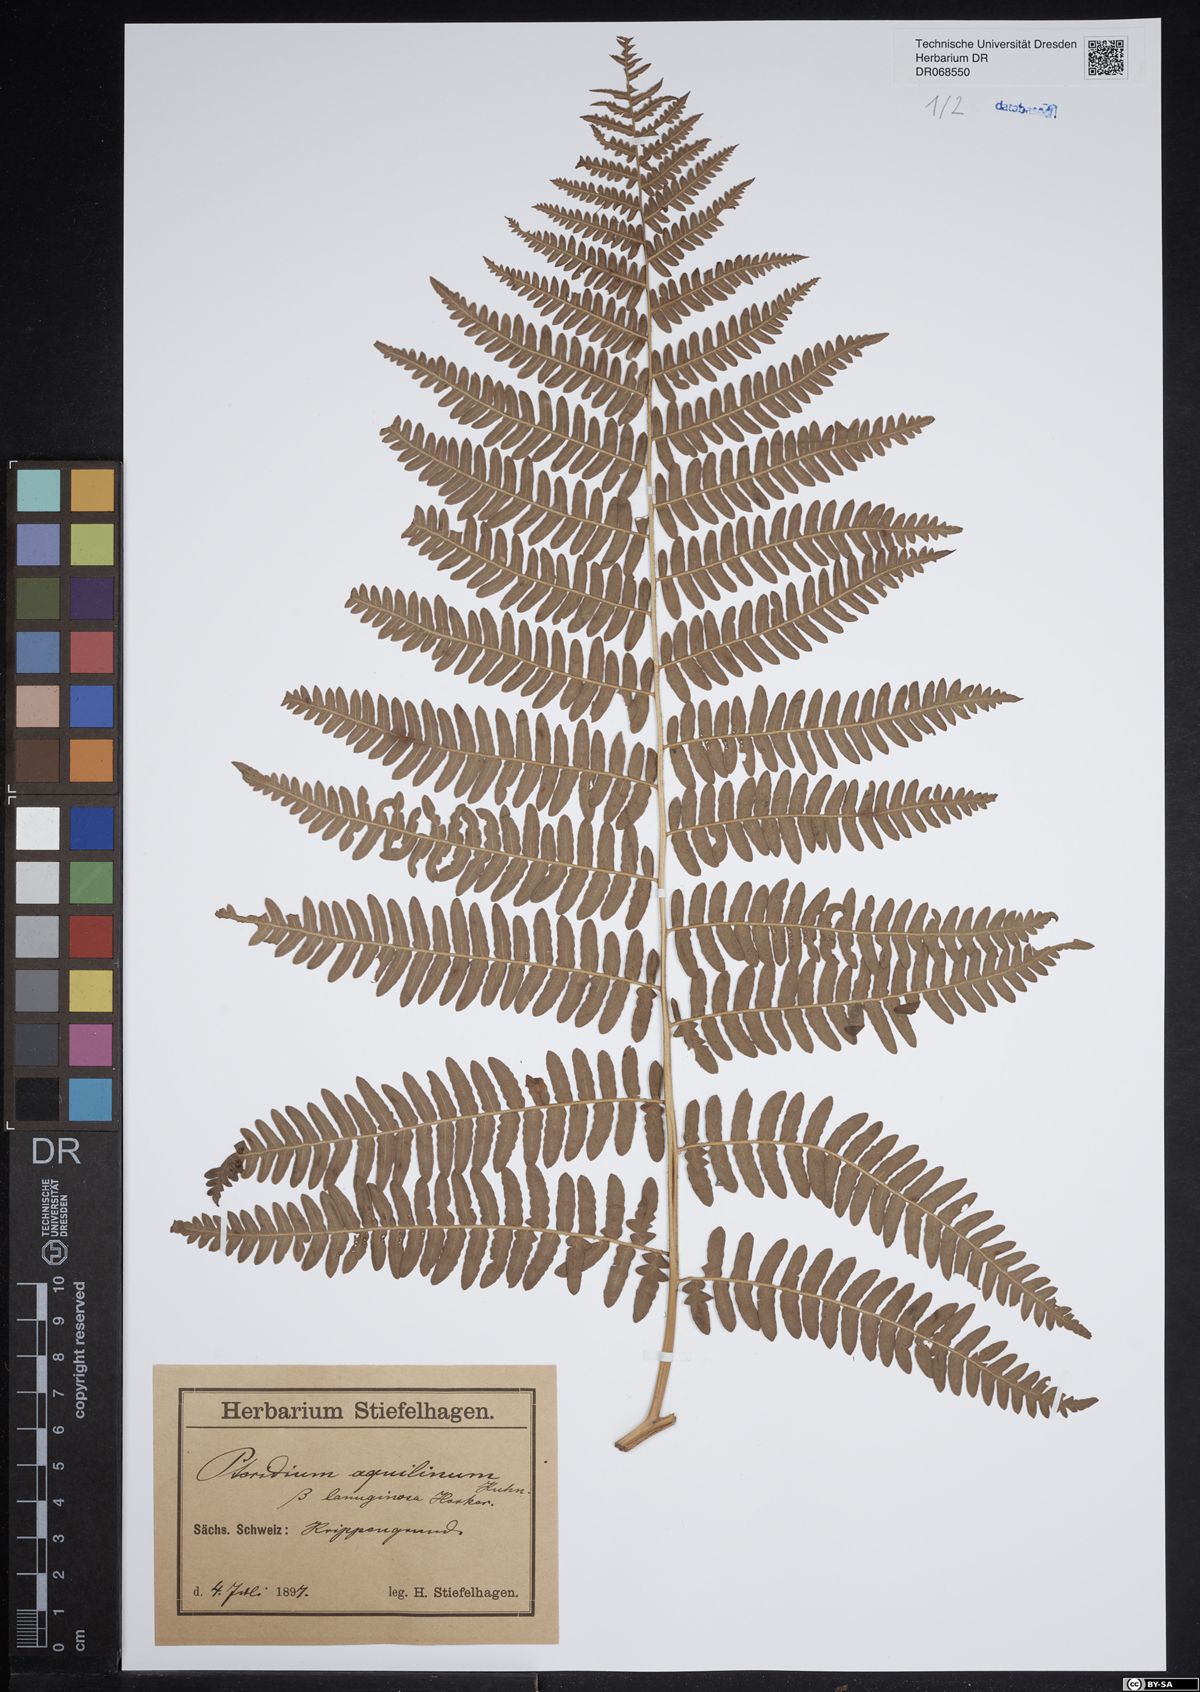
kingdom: Plantae
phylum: Tracheophyta
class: Polypodiopsida
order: Polypodiales
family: Dennstaedtiaceae
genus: Pteridium
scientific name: Pteridium aquilinum
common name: Bracken
